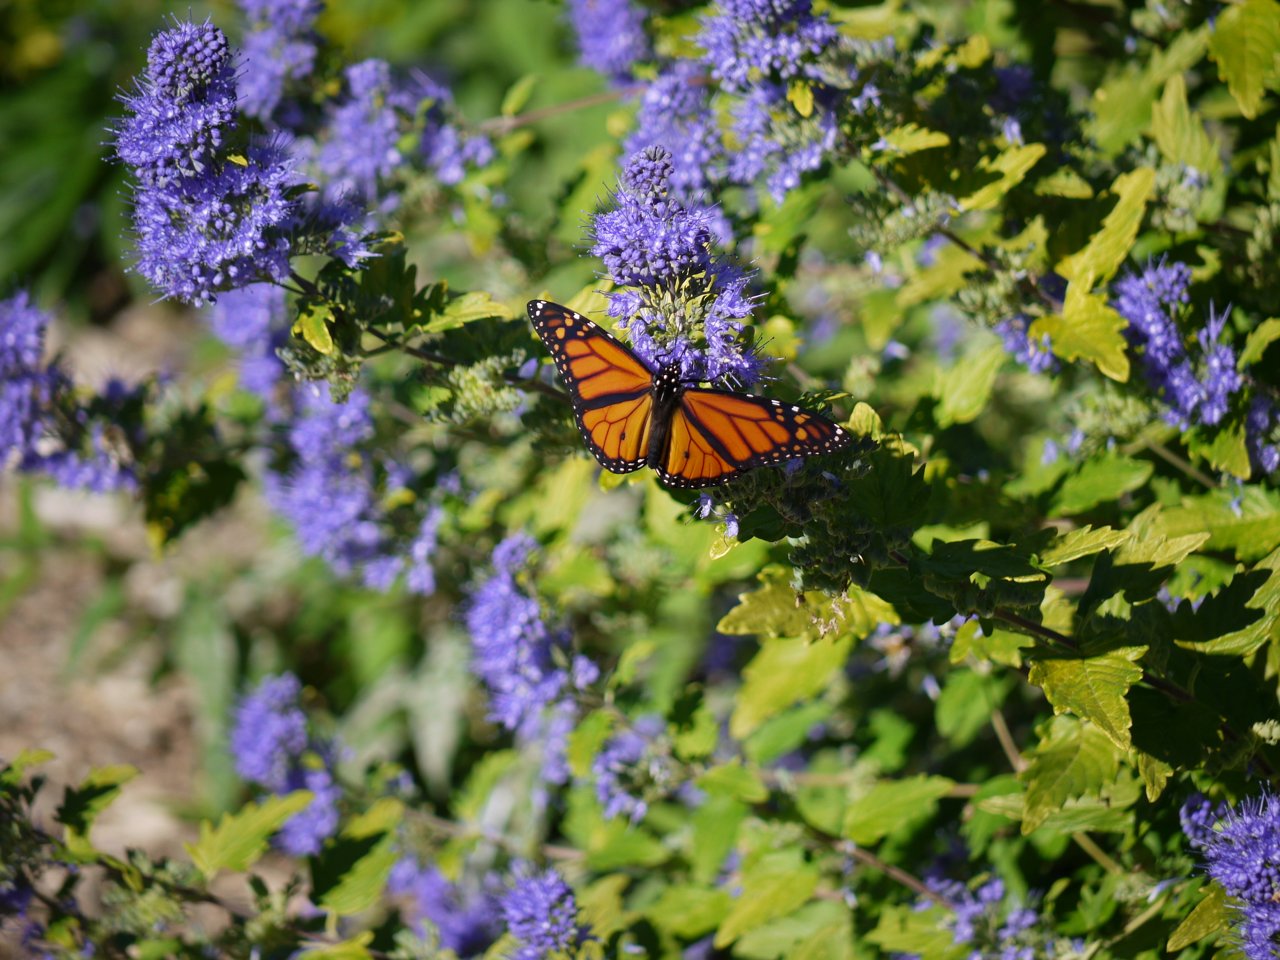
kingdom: Animalia
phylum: Arthropoda
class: Insecta
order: Lepidoptera
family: Nymphalidae
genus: Danaus
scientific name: Danaus plexippus
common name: Monarch
